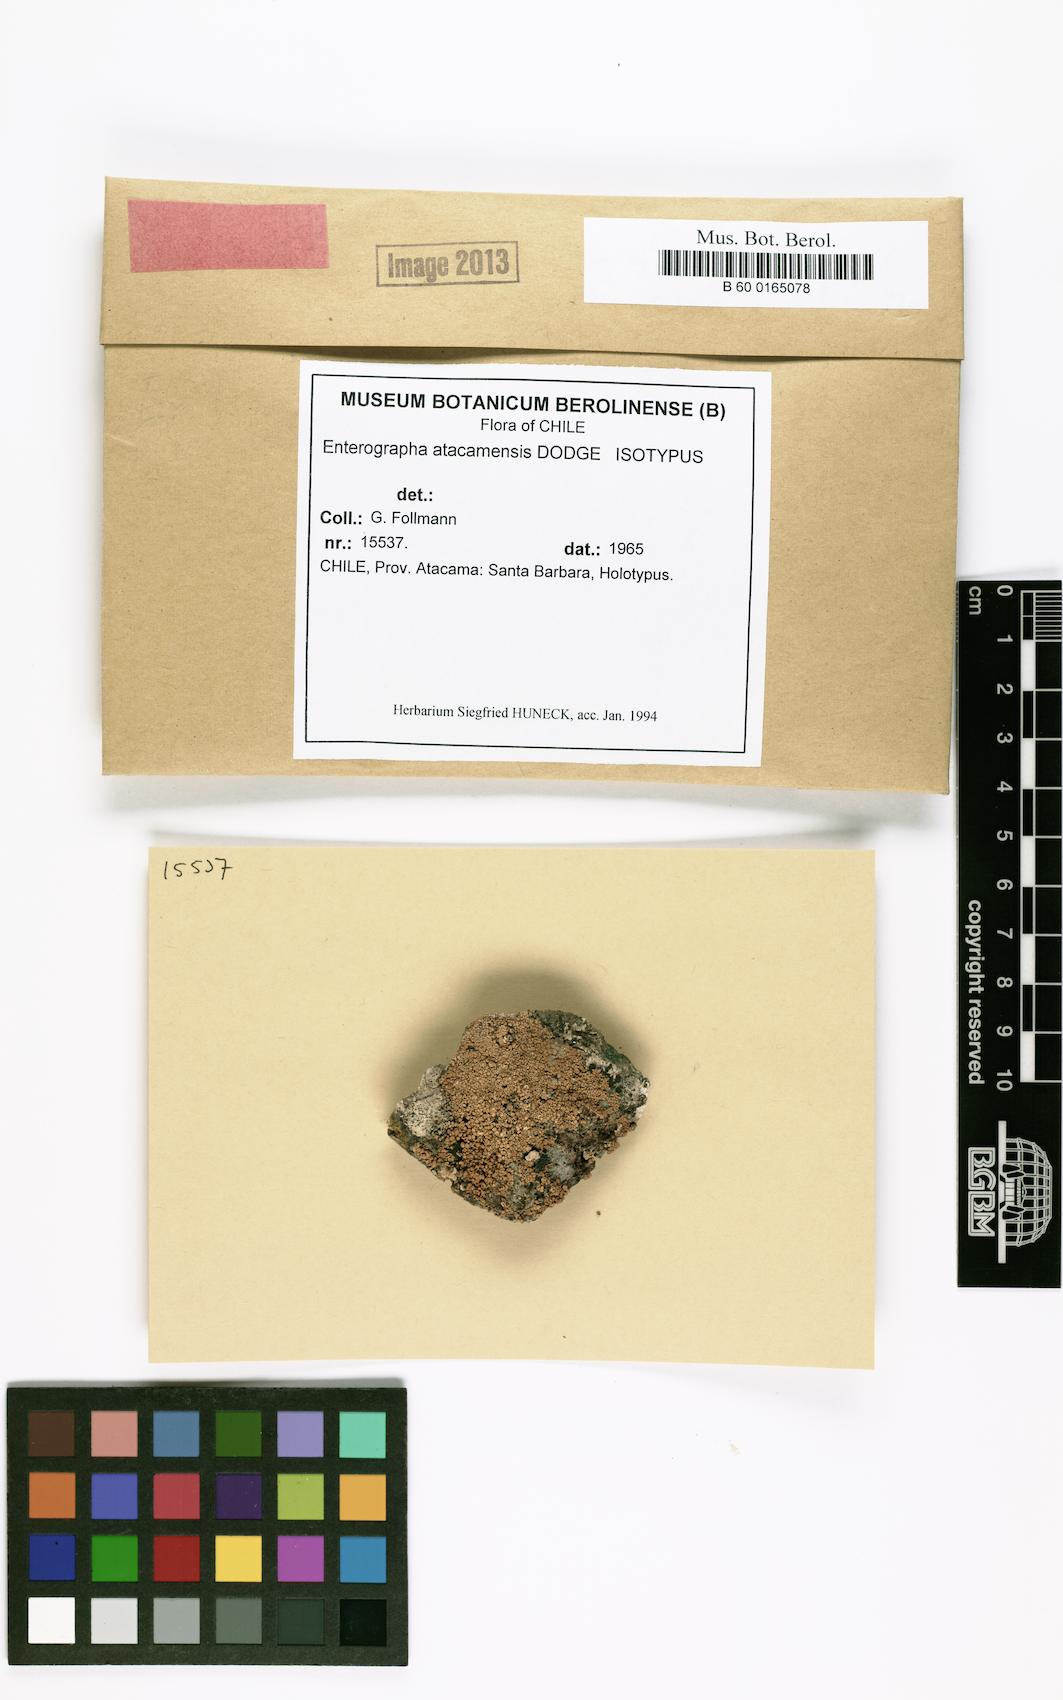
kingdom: Fungi
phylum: Ascomycota
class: Arthoniomycetes
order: Arthoniales
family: Roccellaceae
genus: Enterographa
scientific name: Enterographa atacamensis
